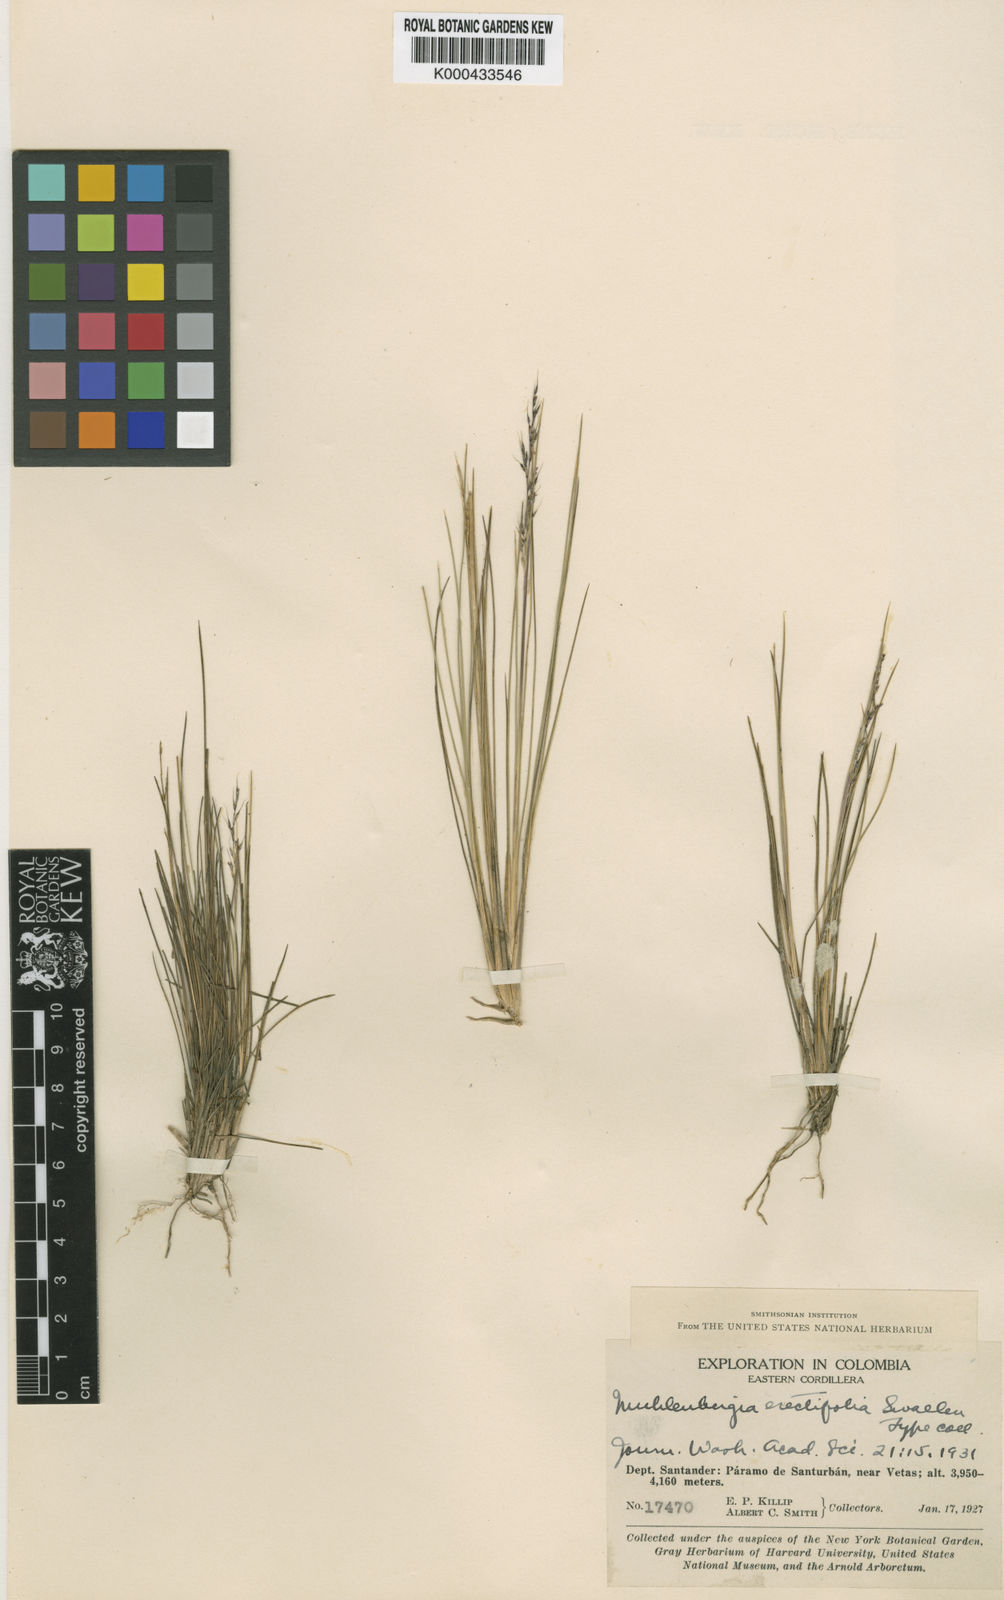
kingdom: Plantae
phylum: Tracheophyta
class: Liliopsida
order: Poales
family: Poaceae
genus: Lorenzochloa
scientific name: Lorenzochloa erectifolia
